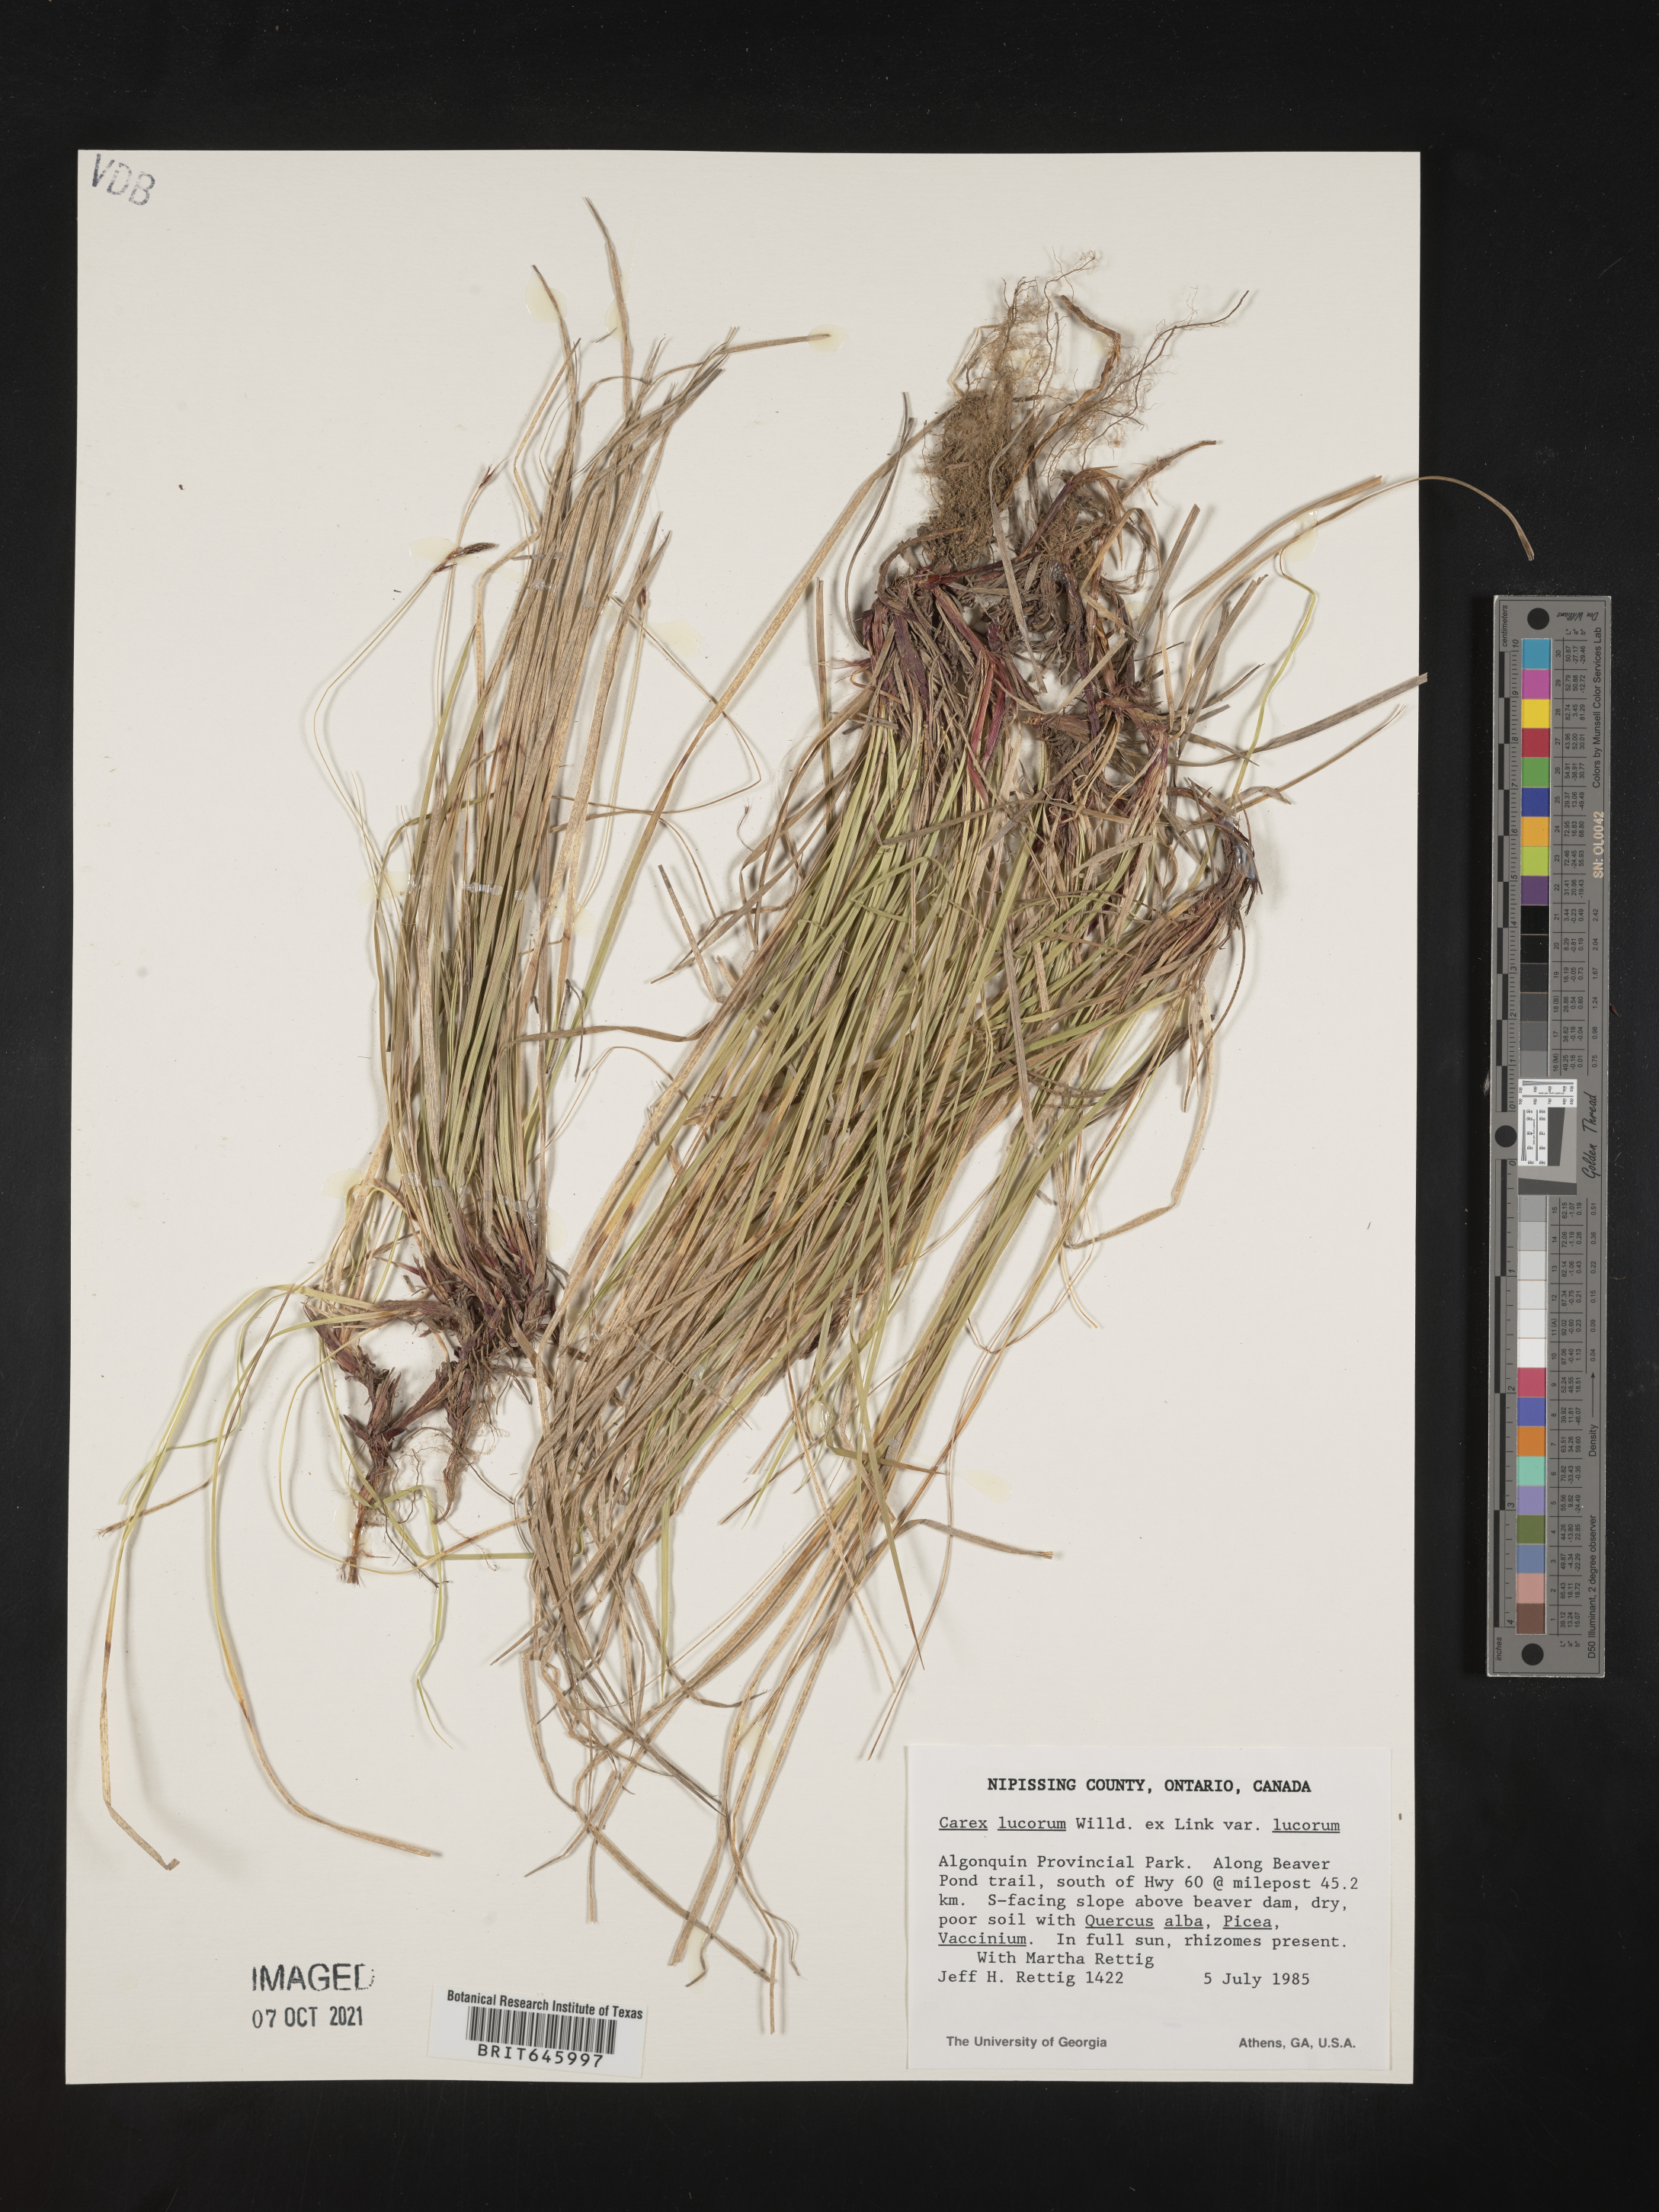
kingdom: Plantae
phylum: Tracheophyta
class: Liliopsida
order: Poales
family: Cyperaceae
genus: Carex
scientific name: Carex lucorum
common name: Blue ridge sedge
